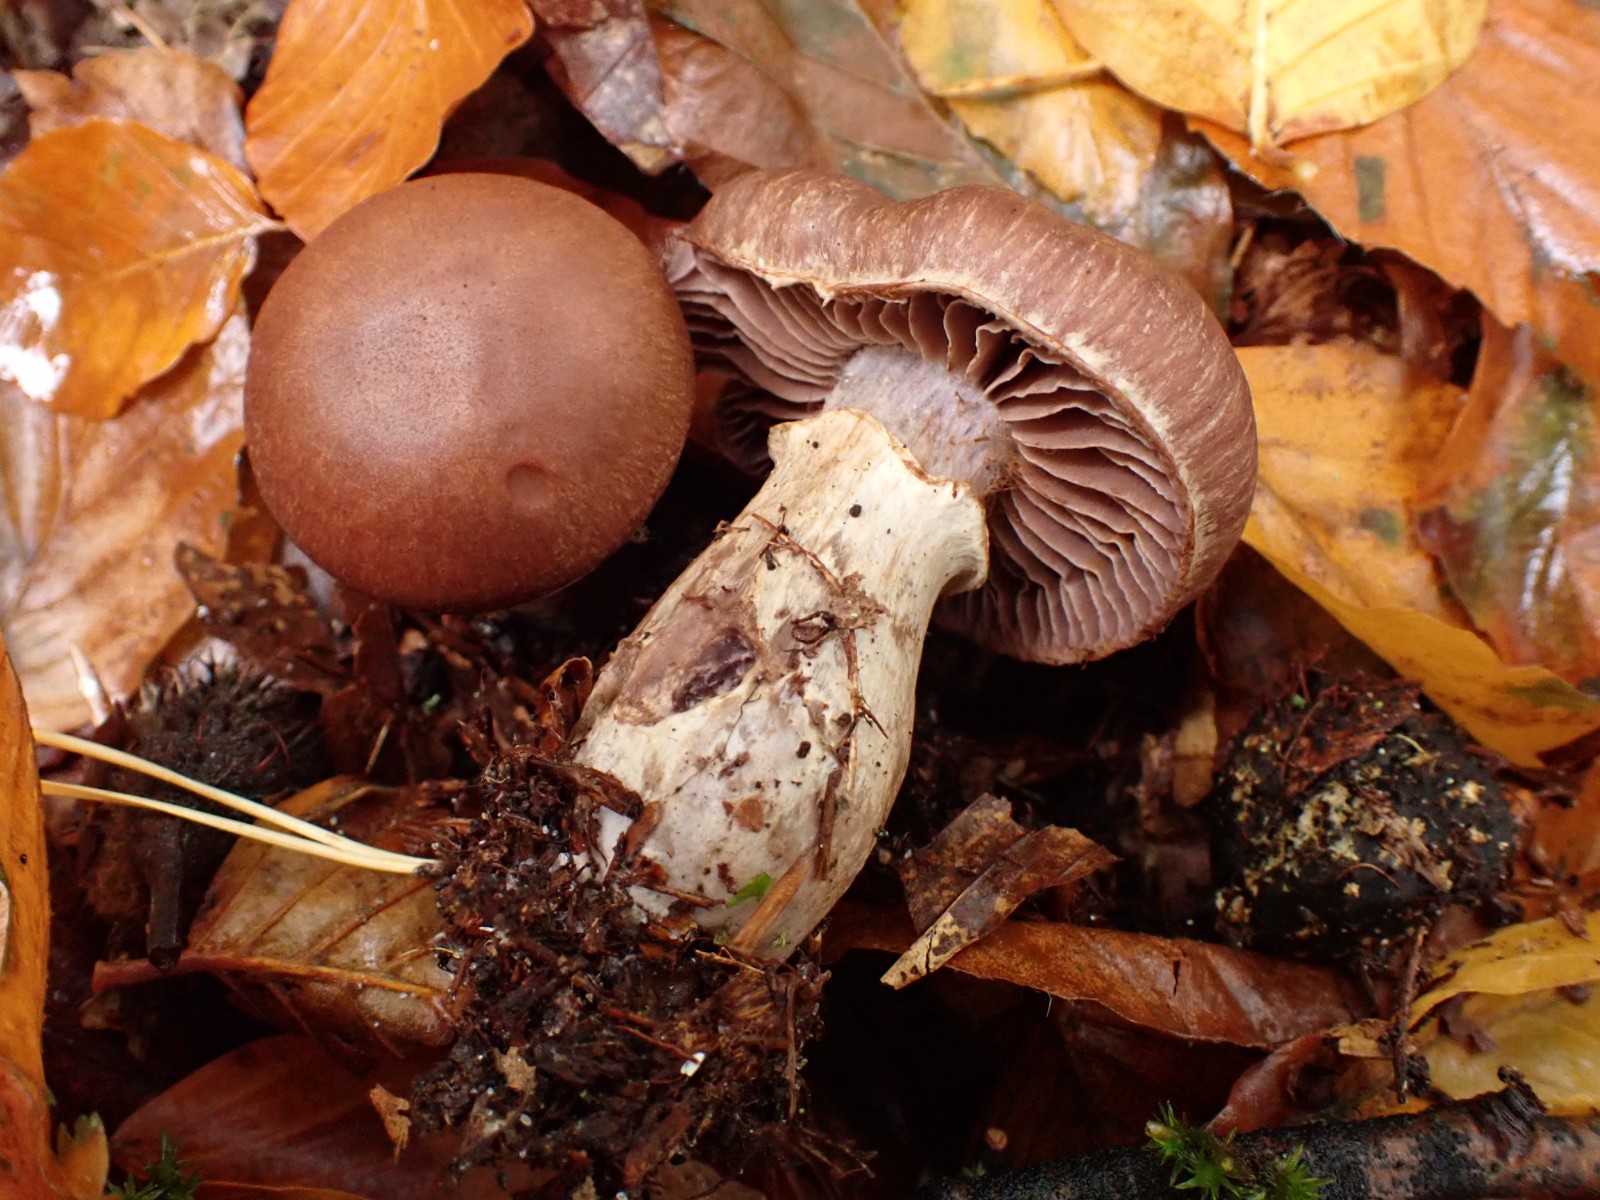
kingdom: Fungi
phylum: Basidiomycota
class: Agaricomycetes
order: Agaricales
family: Cortinariaceae
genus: Cortinarius
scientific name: Cortinarius torvus
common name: champignonagtig slørhat
